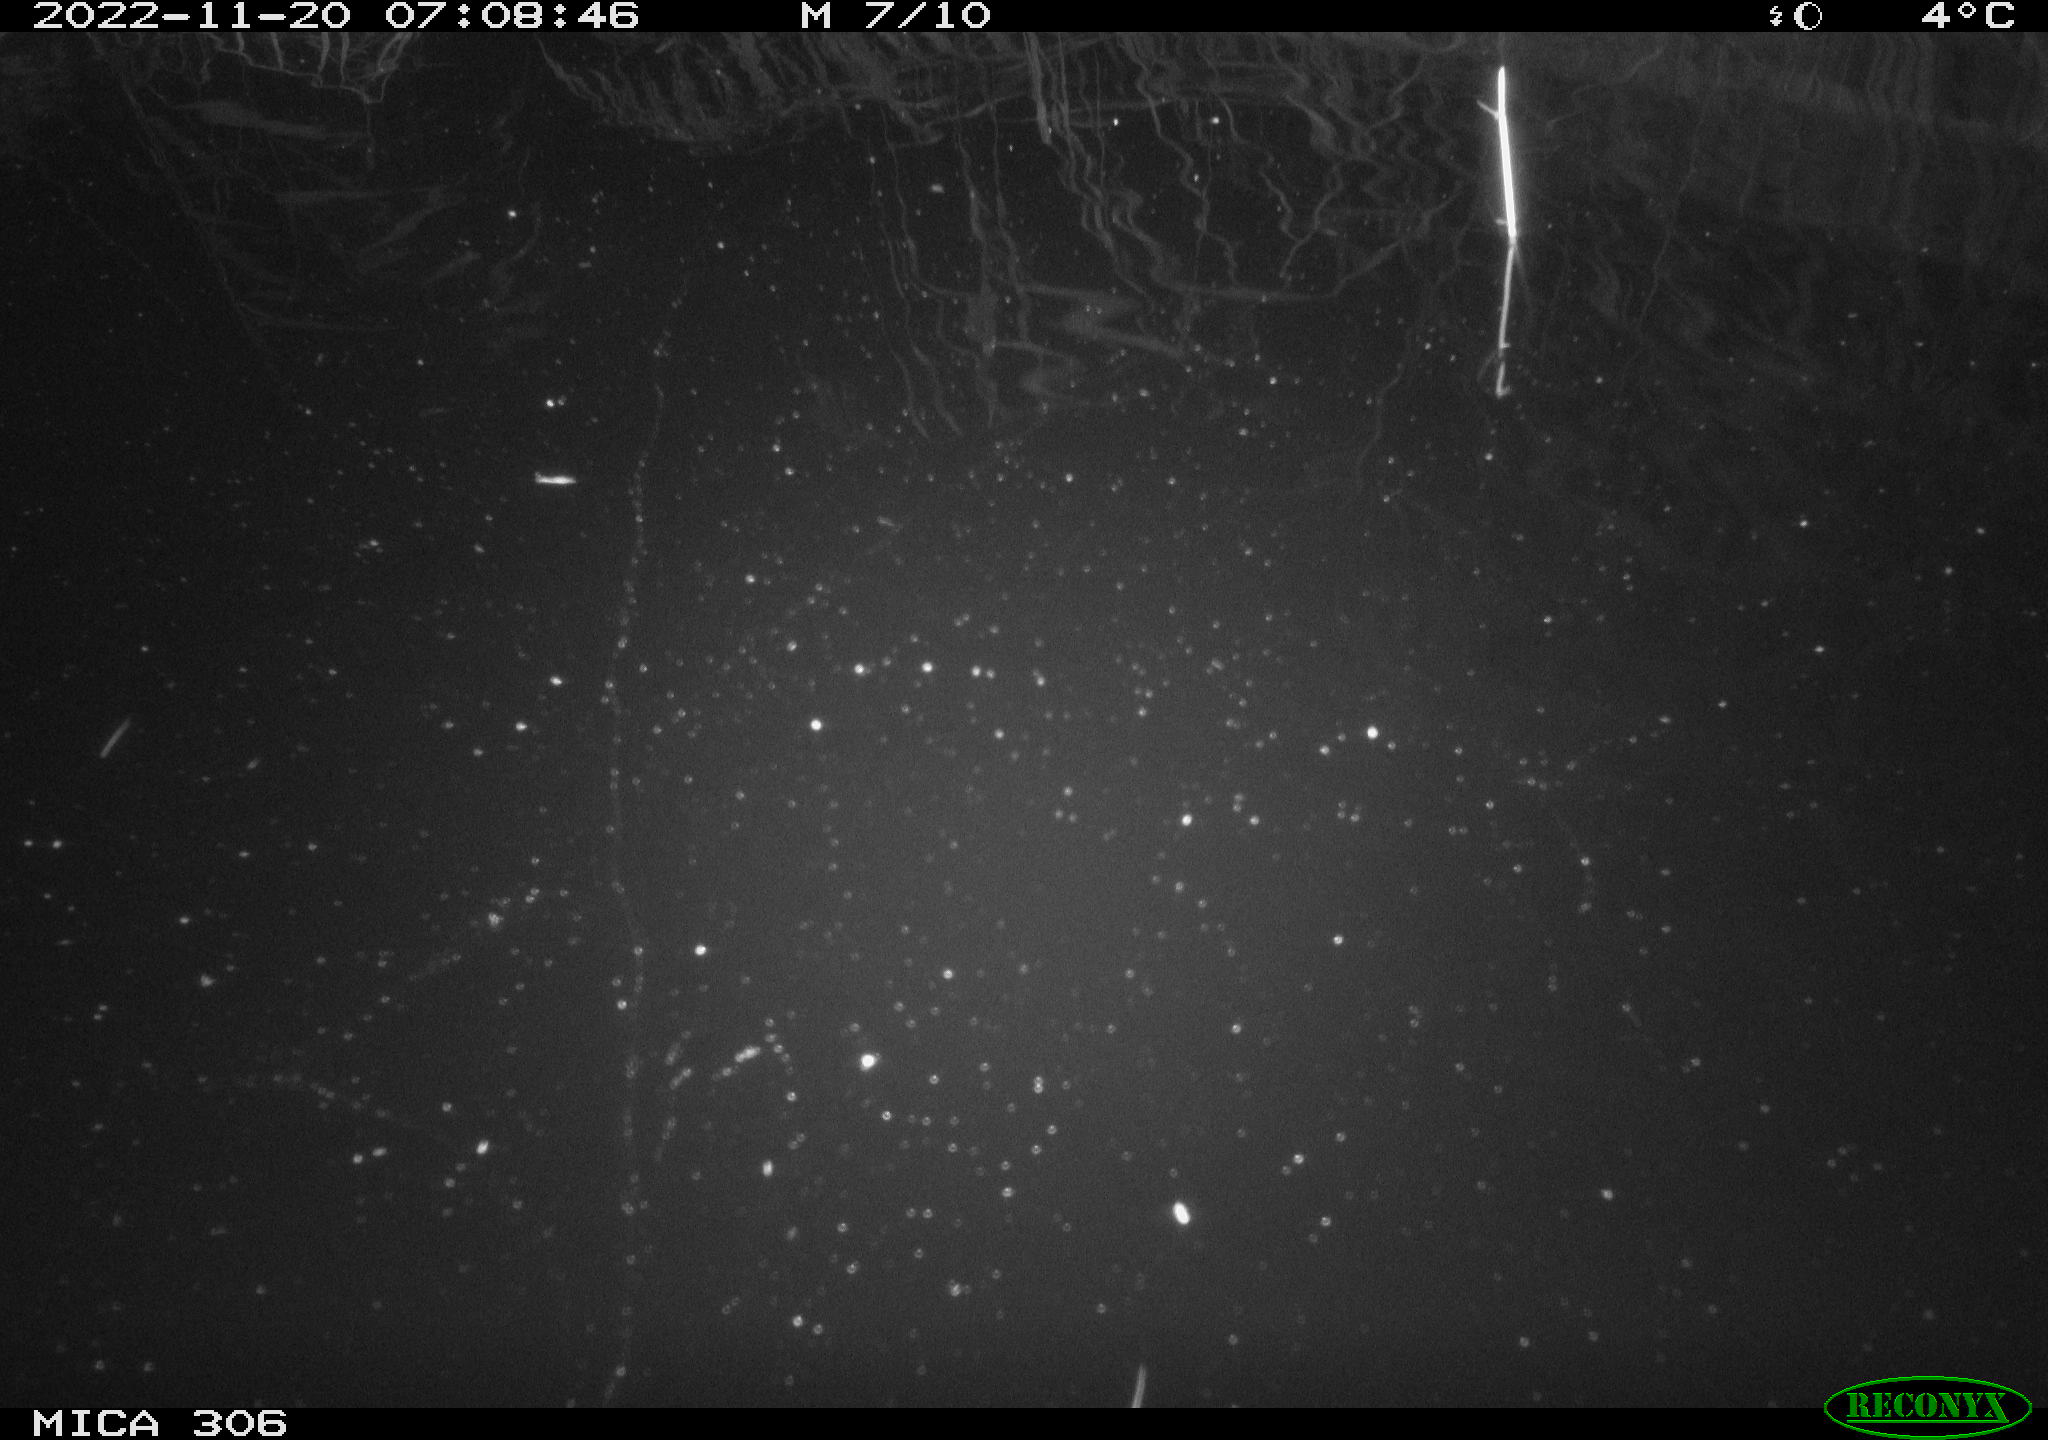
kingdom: Animalia
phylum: Chordata
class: Mammalia
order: Rodentia
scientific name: Rodentia
